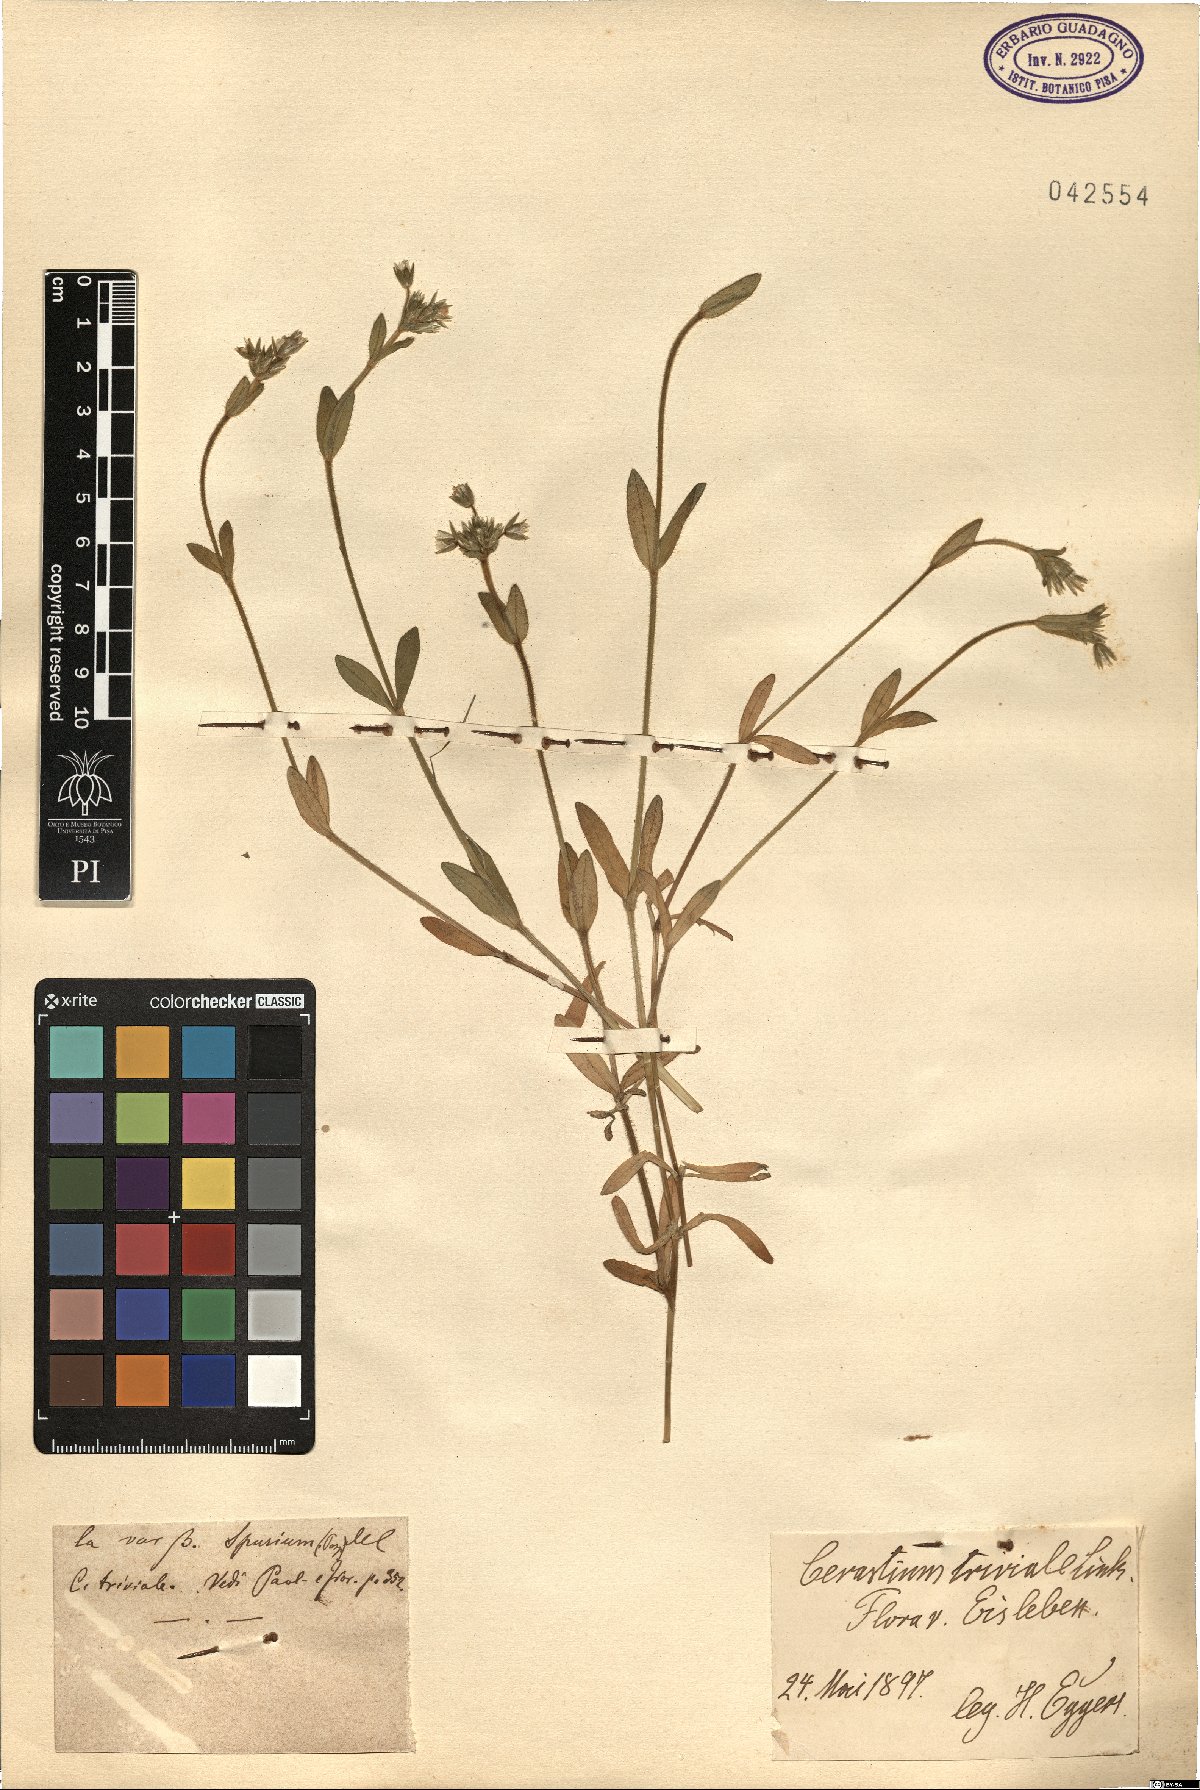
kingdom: Plantae
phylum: Tracheophyta
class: Magnoliopsida
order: Caryophyllales
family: Caryophyllaceae
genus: Cerastium
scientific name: Cerastium glomeratum
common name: Sticky chickweed
